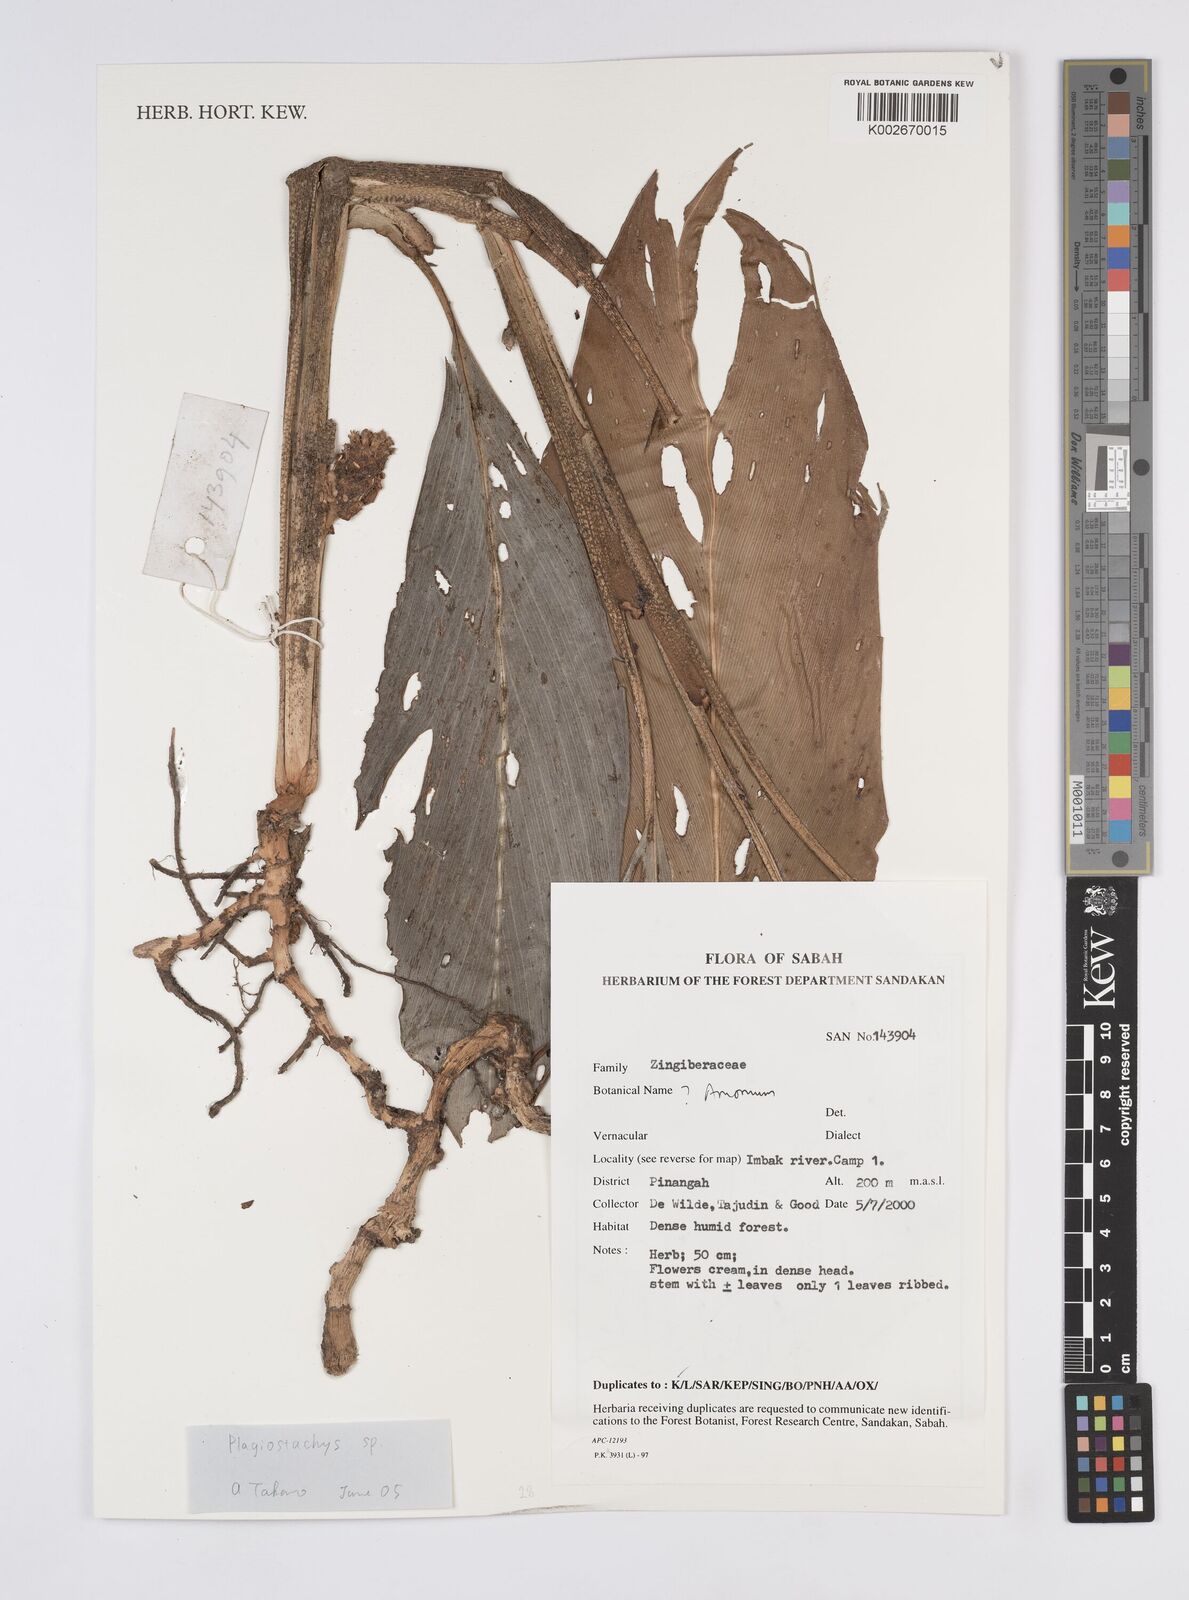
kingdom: Plantae
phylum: Tracheophyta
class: Liliopsida
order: Zingiberales
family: Zingiberaceae
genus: Plagiostachys
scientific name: Plagiostachys
